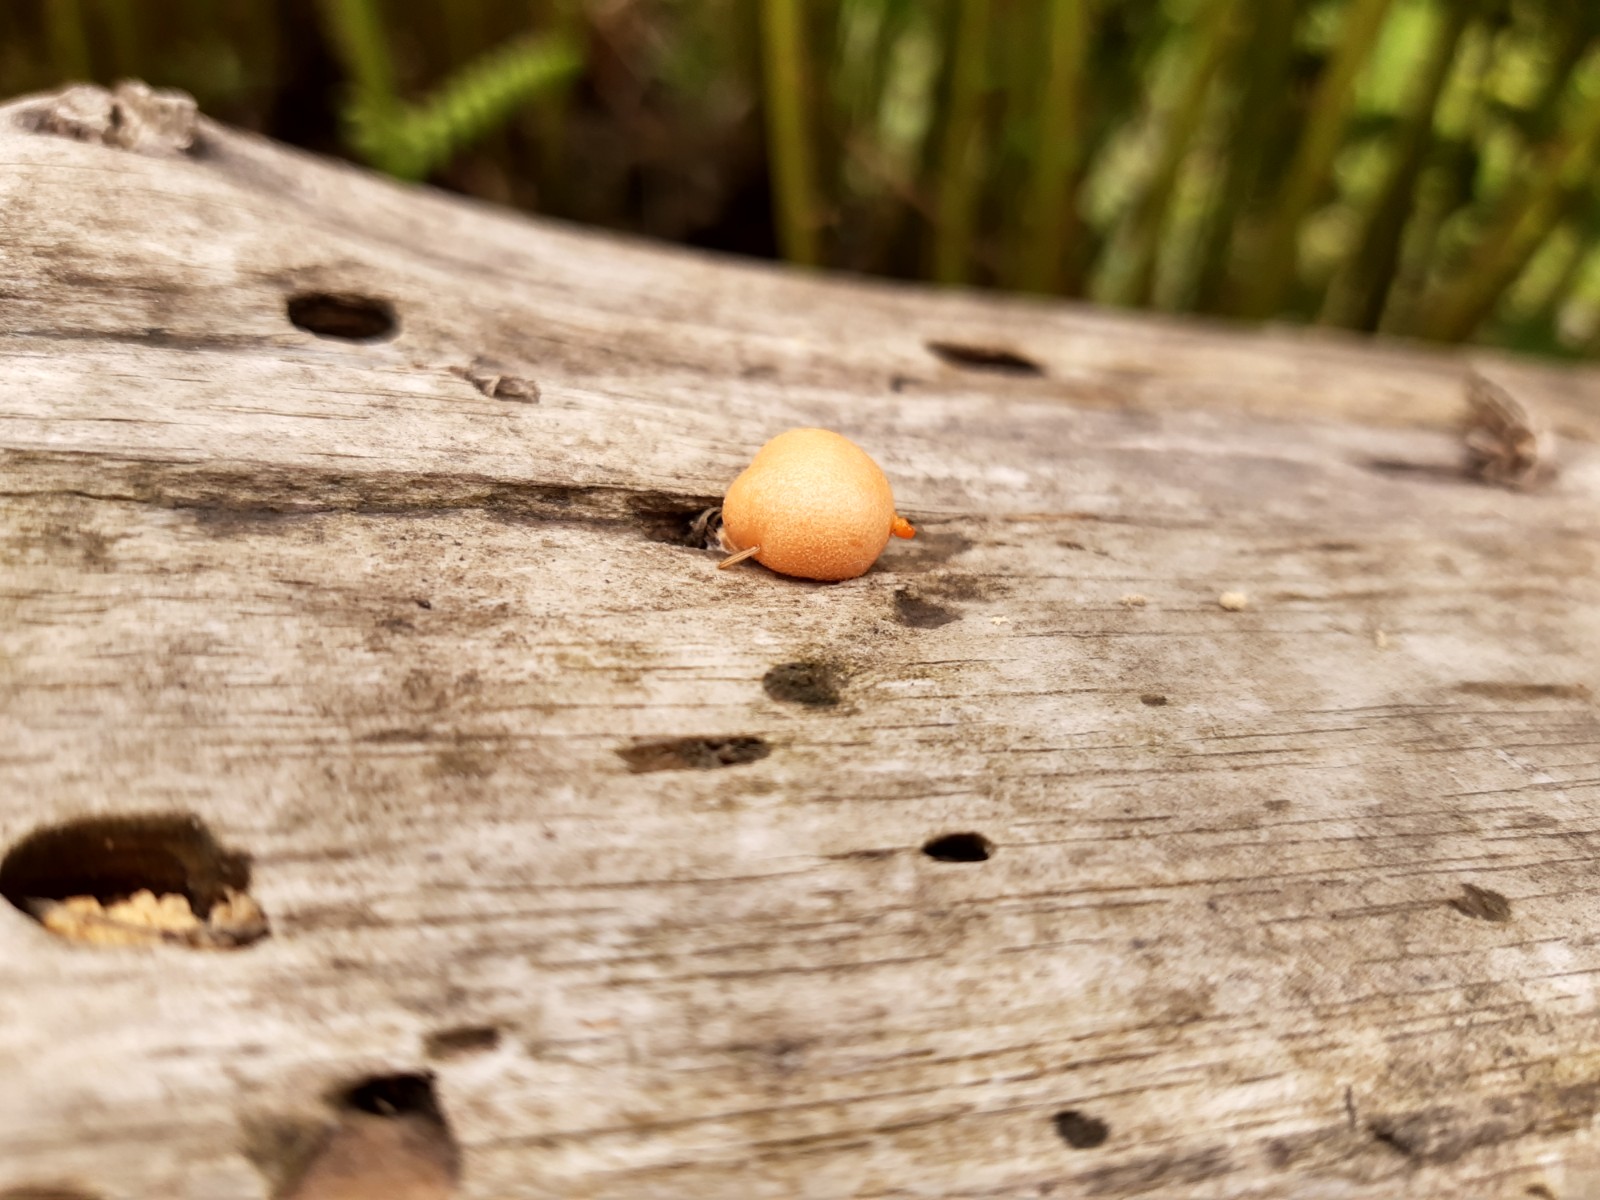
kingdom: Protozoa
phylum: Mycetozoa
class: Myxomycetes
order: Cribrariales
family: Tubiferaceae
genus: Lycogala
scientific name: Lycogala epidendrum
